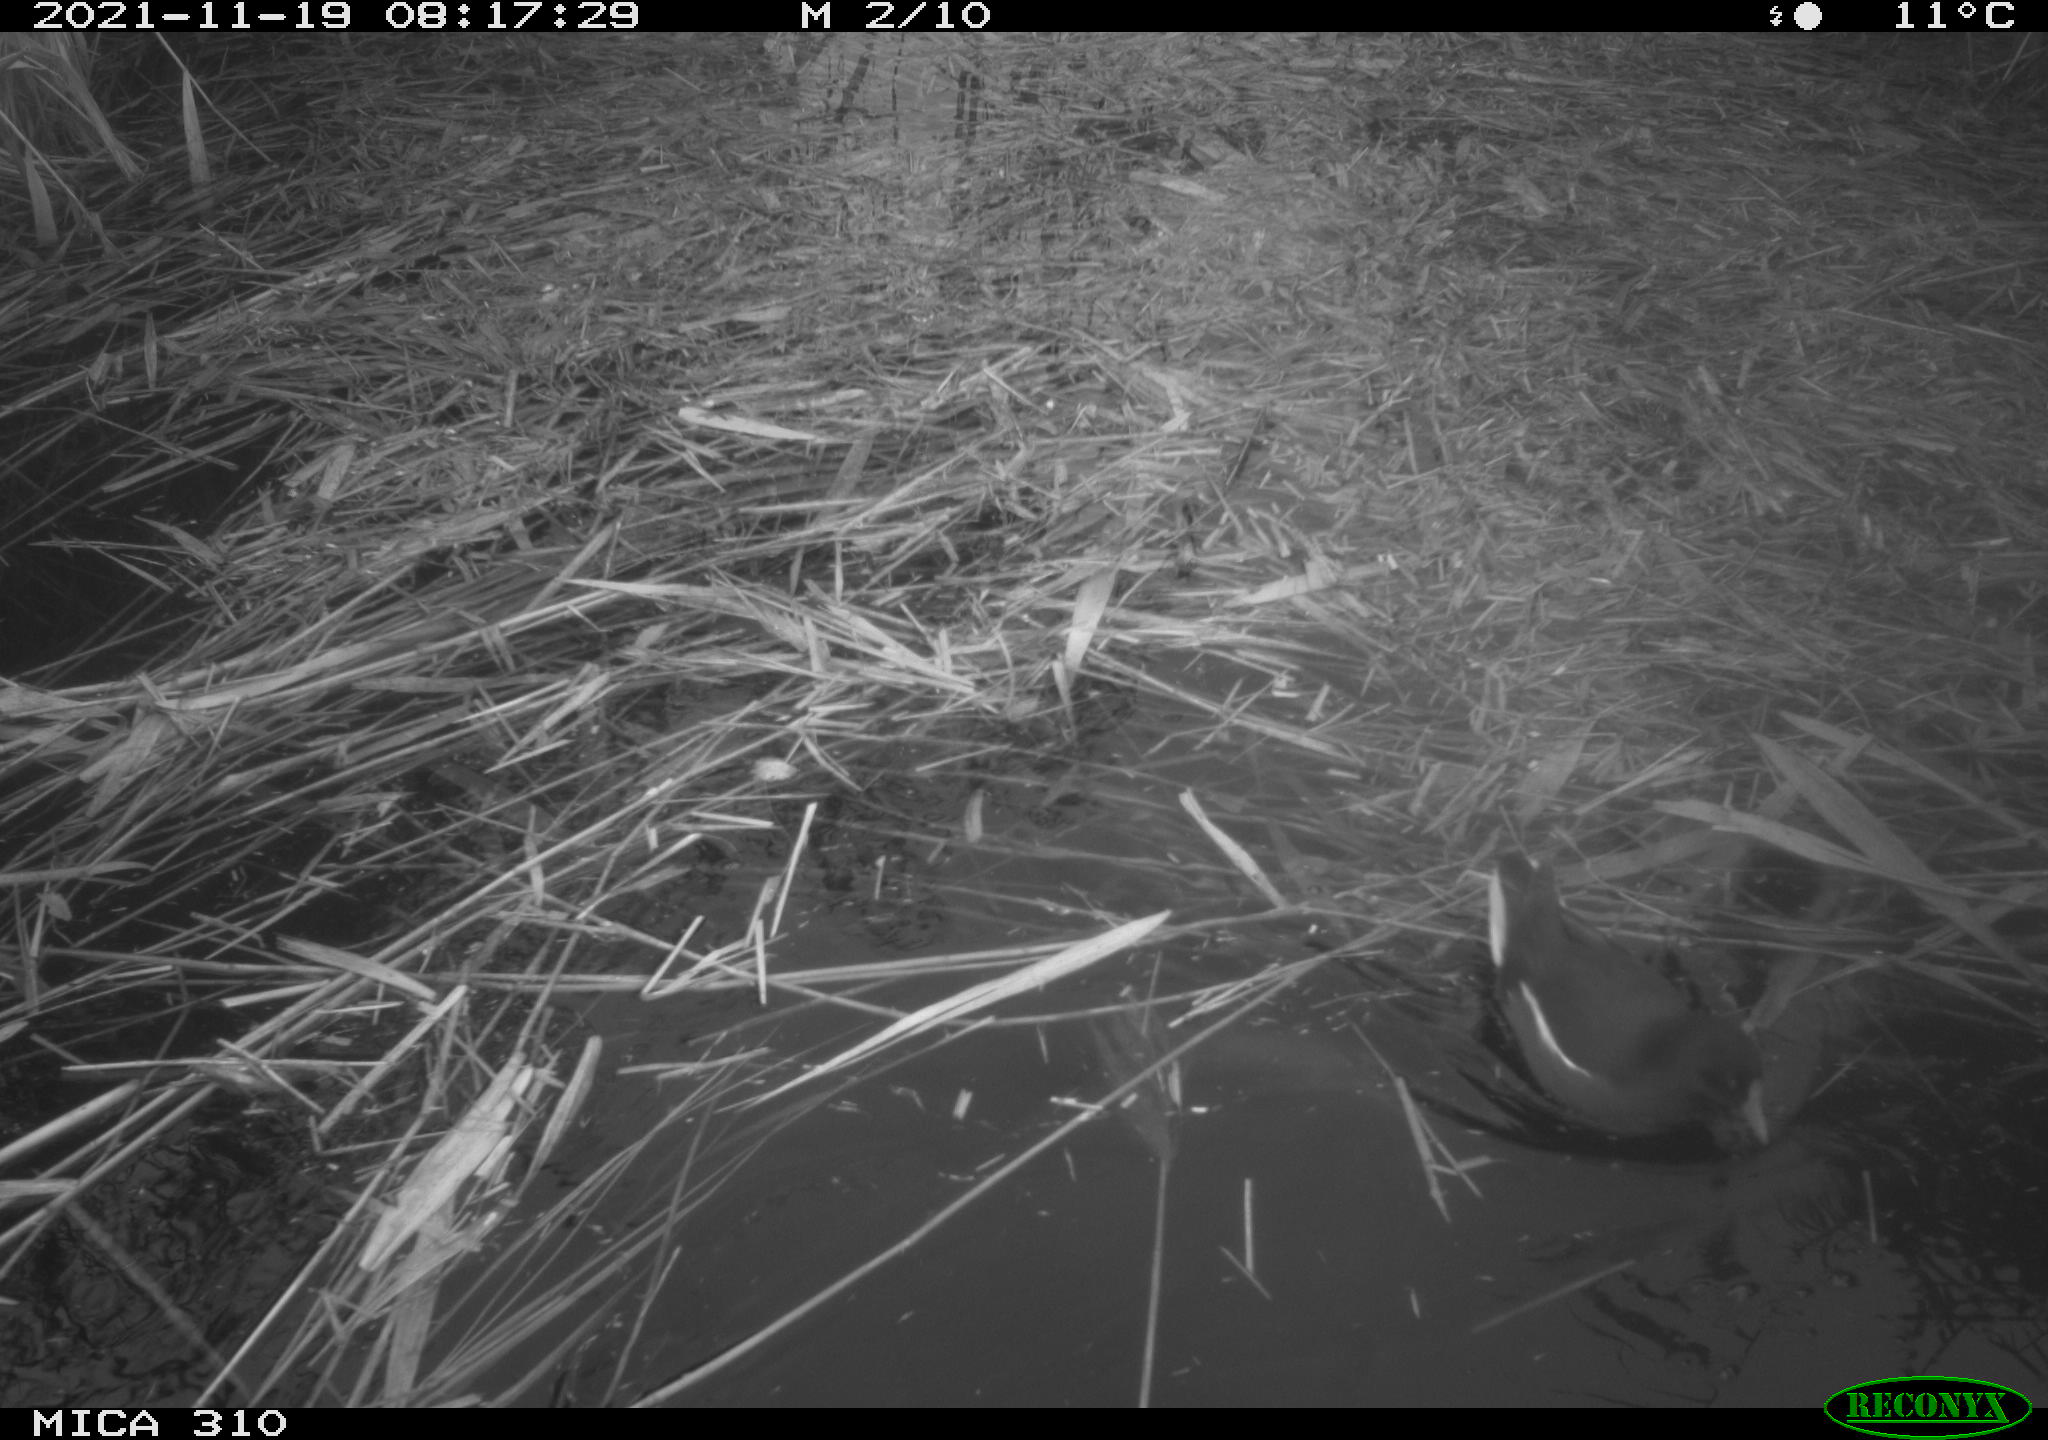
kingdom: Animalia
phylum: Chordata
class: Aves
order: Gruiformes
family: Rallidae
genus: Gallinula
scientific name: Gallinula chloropus
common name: Common moorhen
